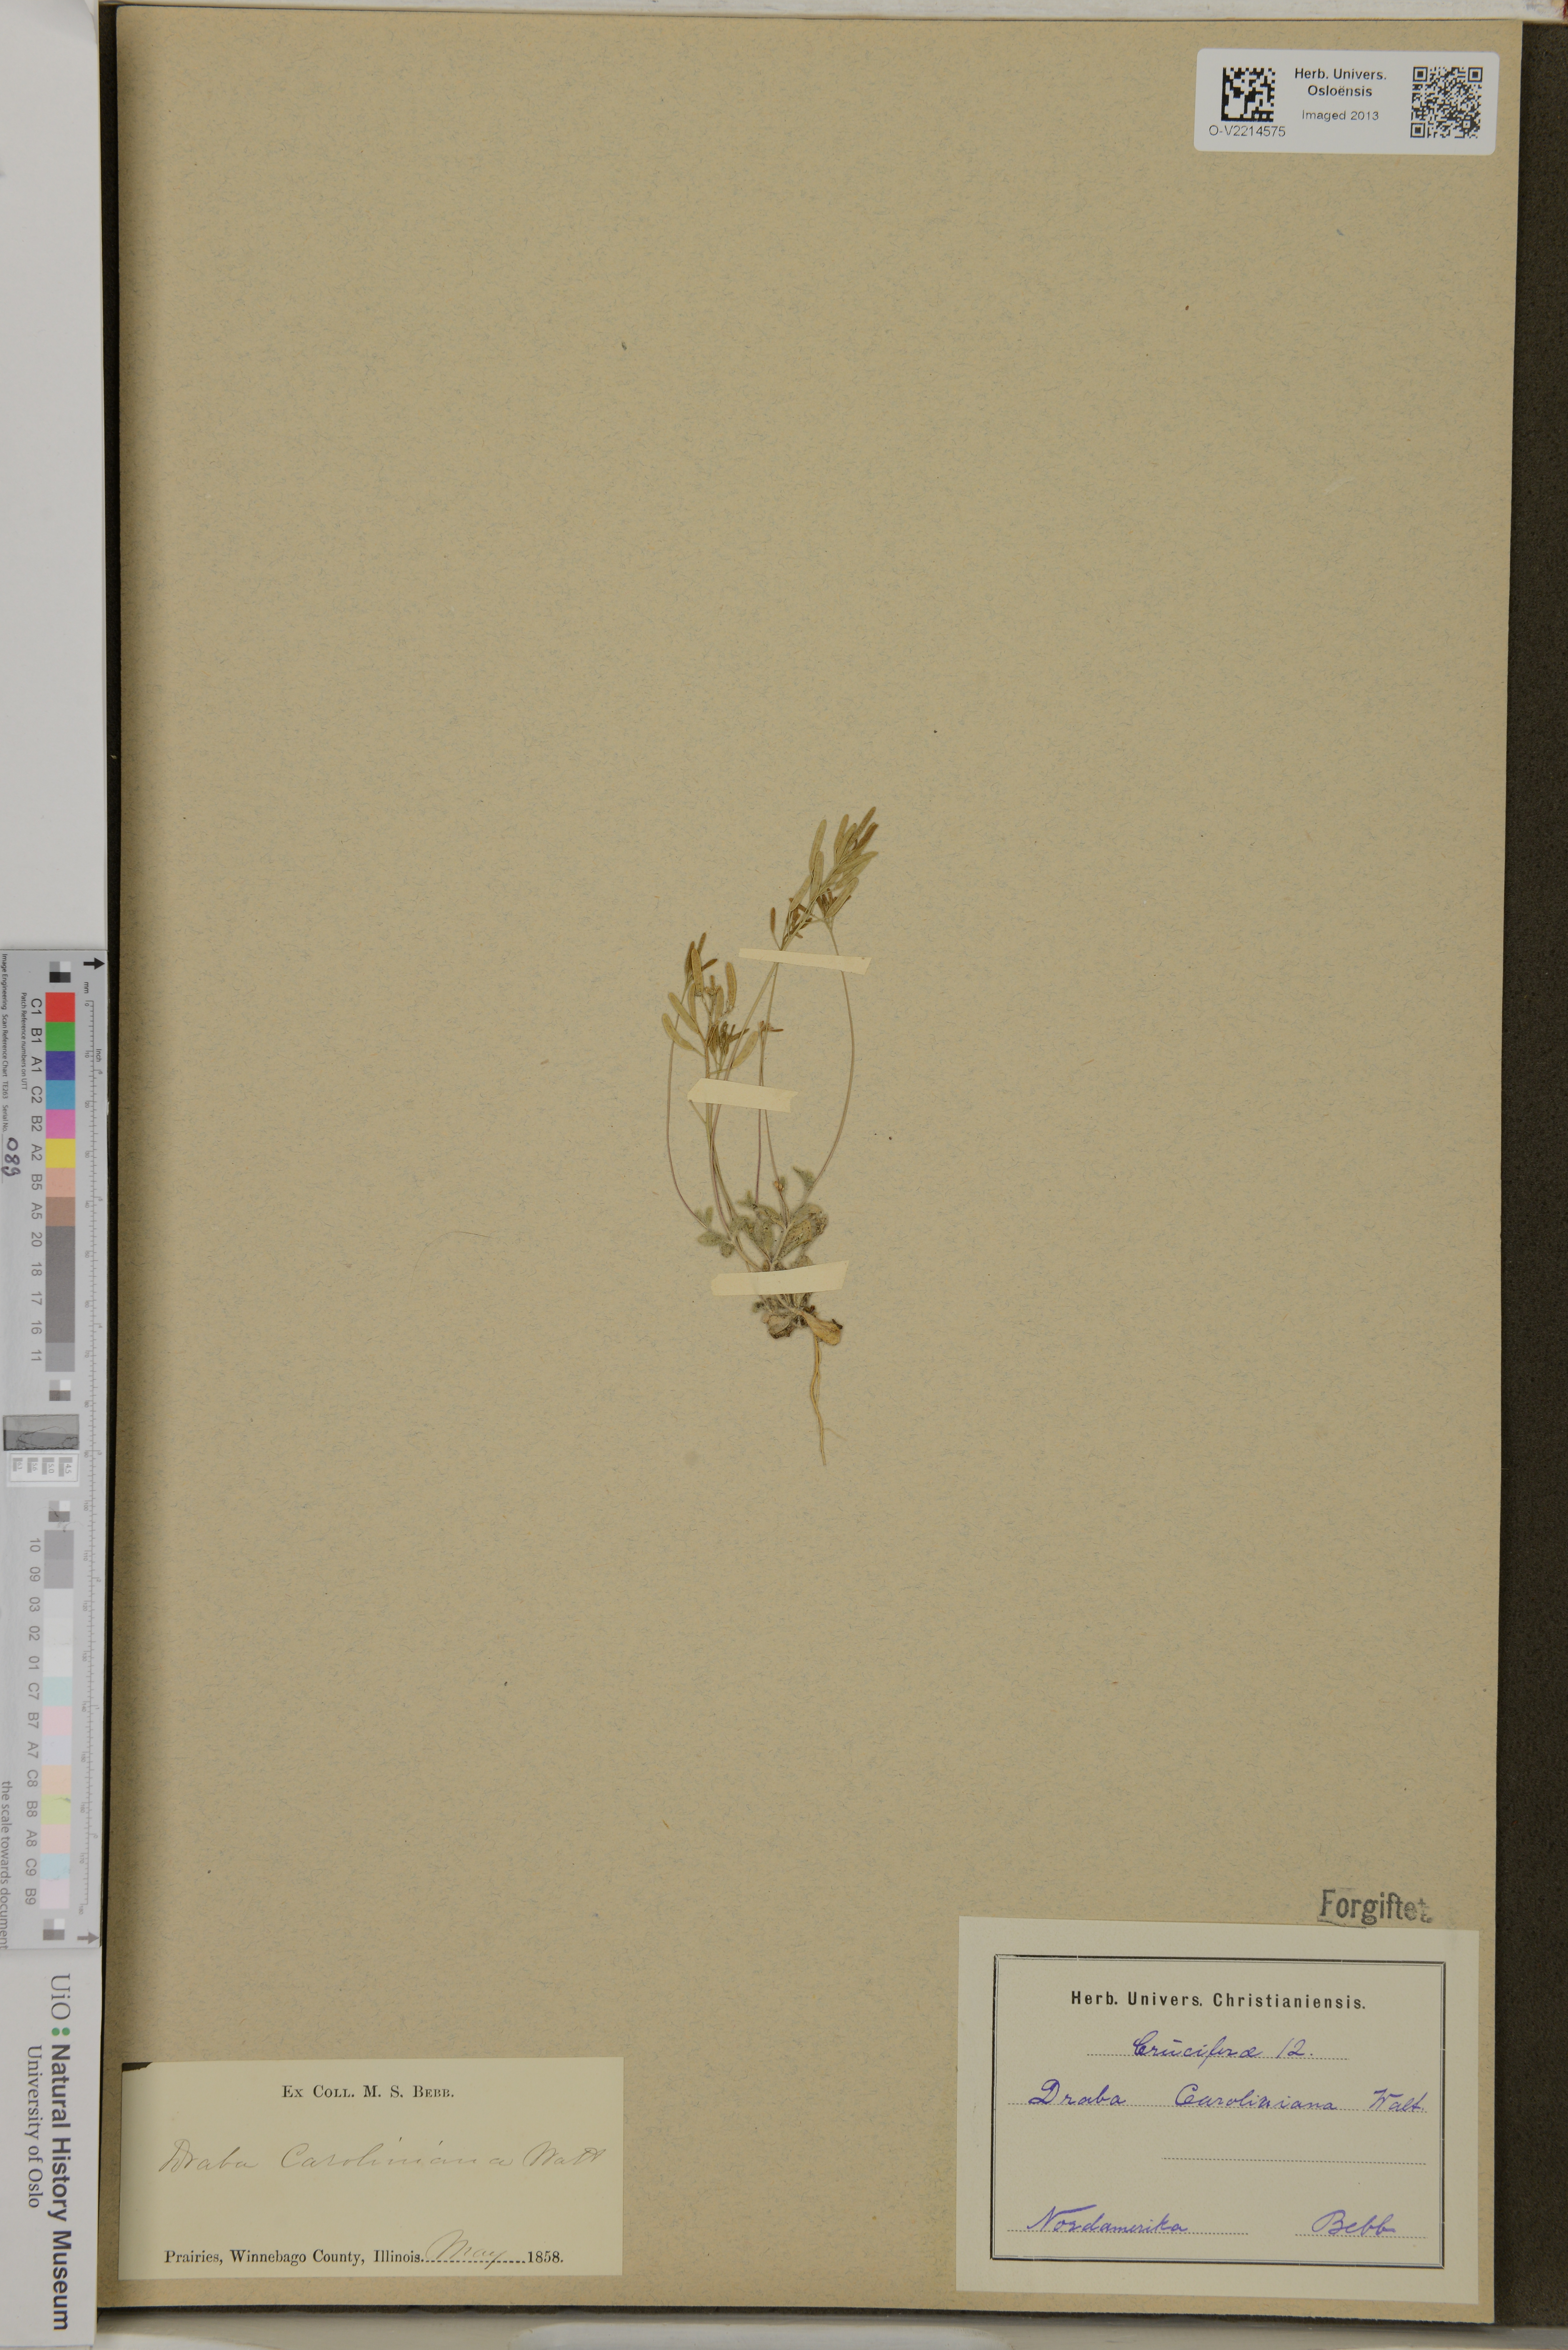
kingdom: Plantae
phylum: Tracheophyta
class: Magnoliopsida
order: Brassicales
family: Brassicaceae
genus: Tomostima
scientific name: Tomostima reptans
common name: Carolina draba
